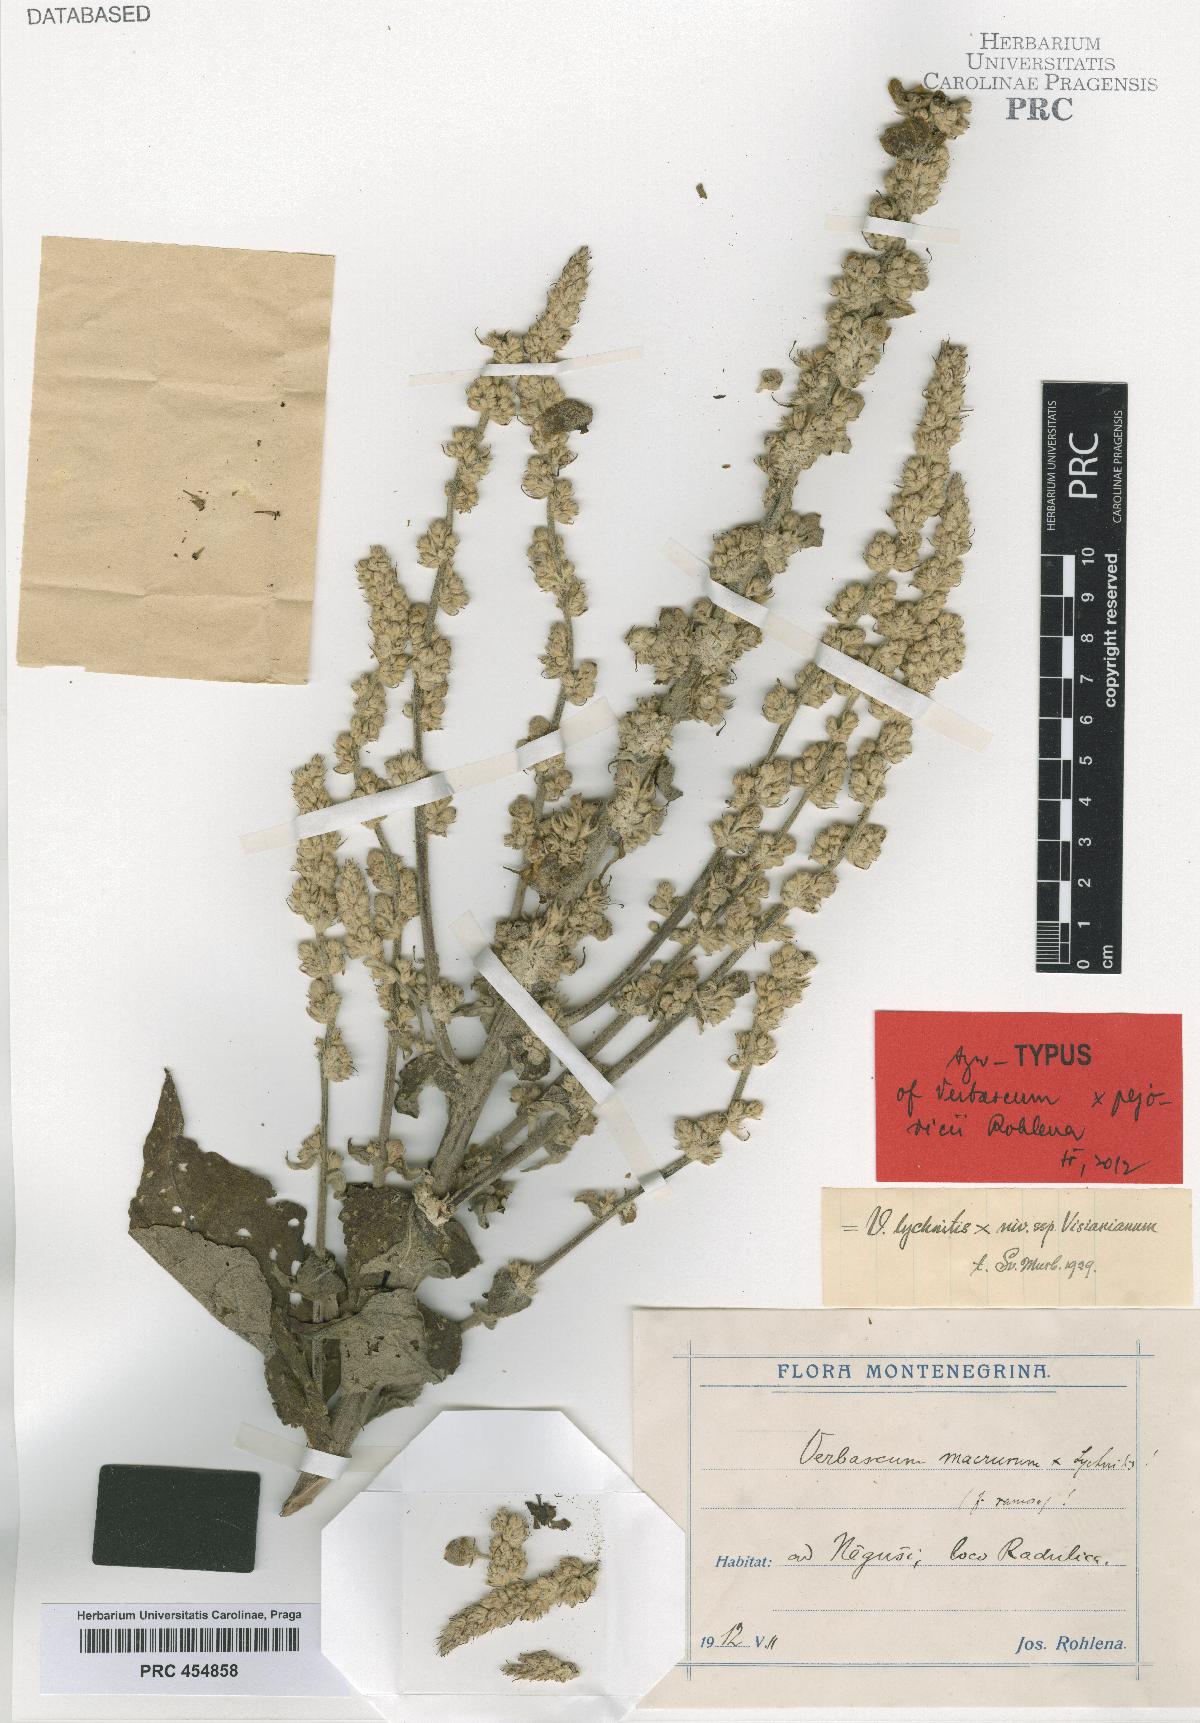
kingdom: Plantae
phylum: Tracheophyta
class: Magnoliopsida
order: Lamiales
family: Scrophulariaceae
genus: Verbascum
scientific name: Verbascum congestum
